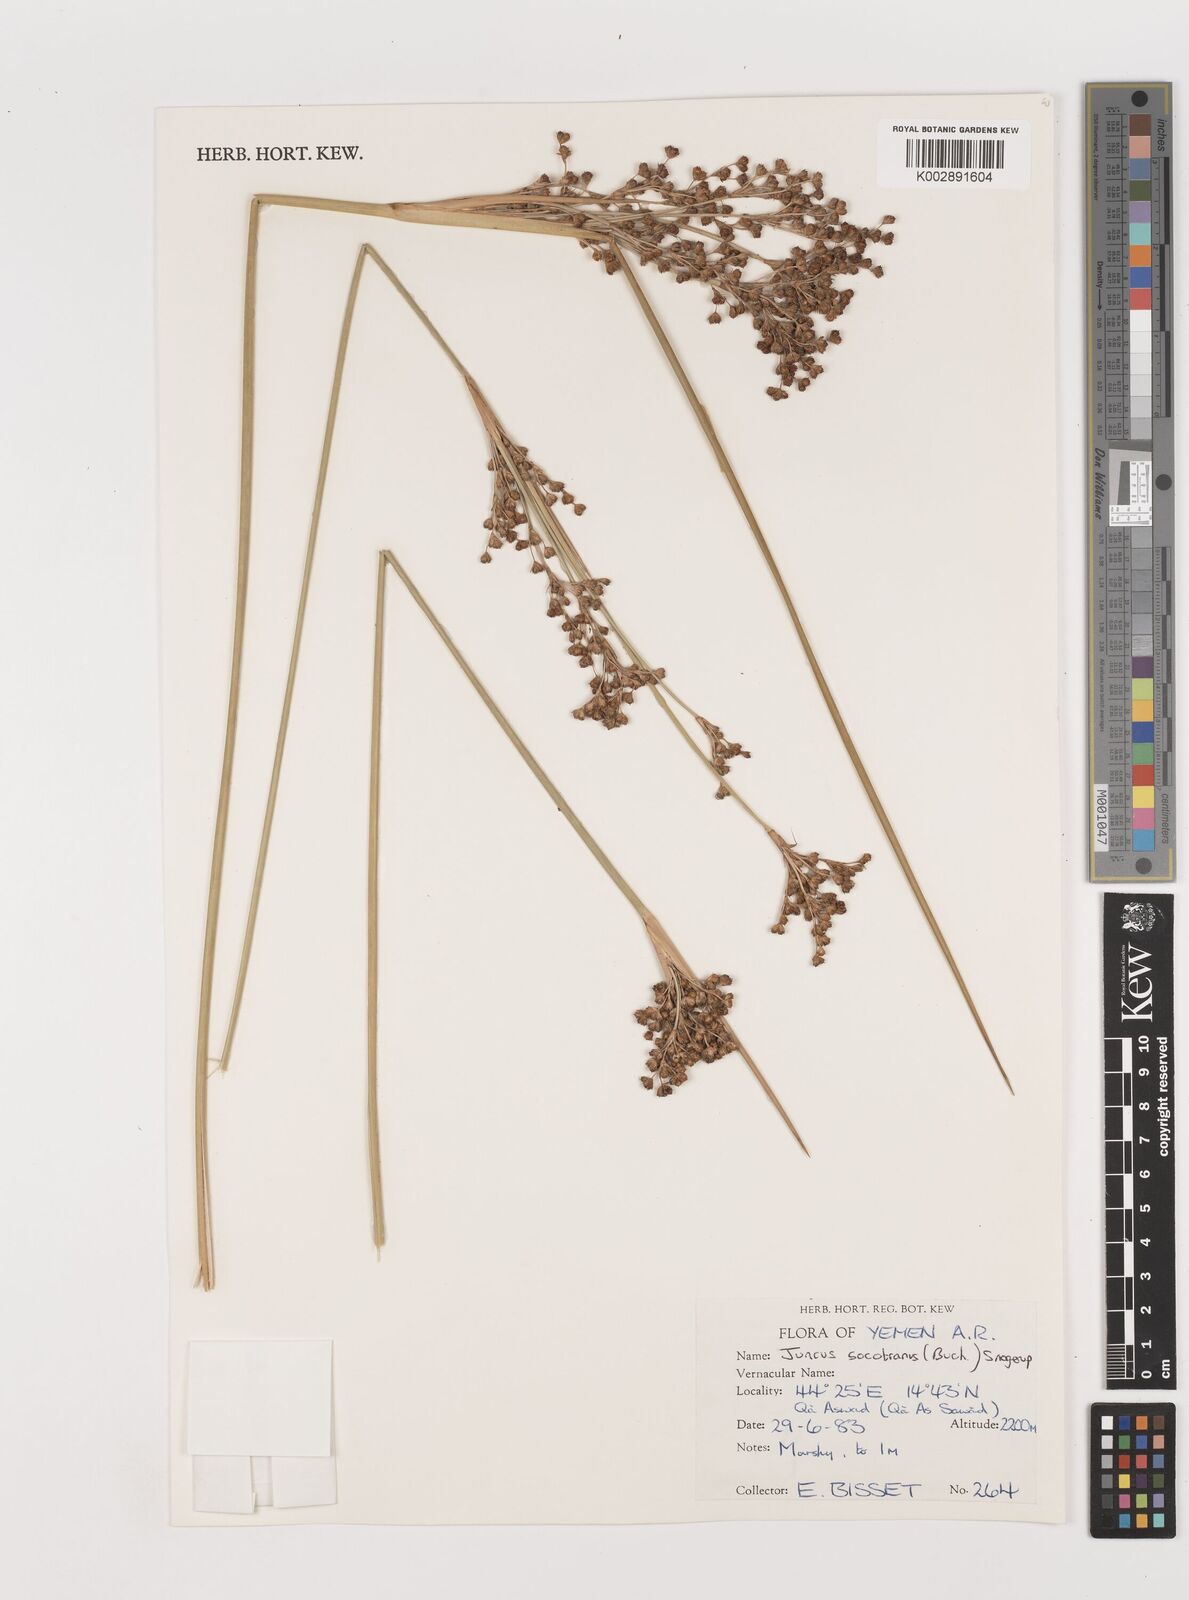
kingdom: Plantae
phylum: Tracheophyta
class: Liliopsida
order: Poales
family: Juncaceae
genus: Juncus
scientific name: Juncus socotranus
